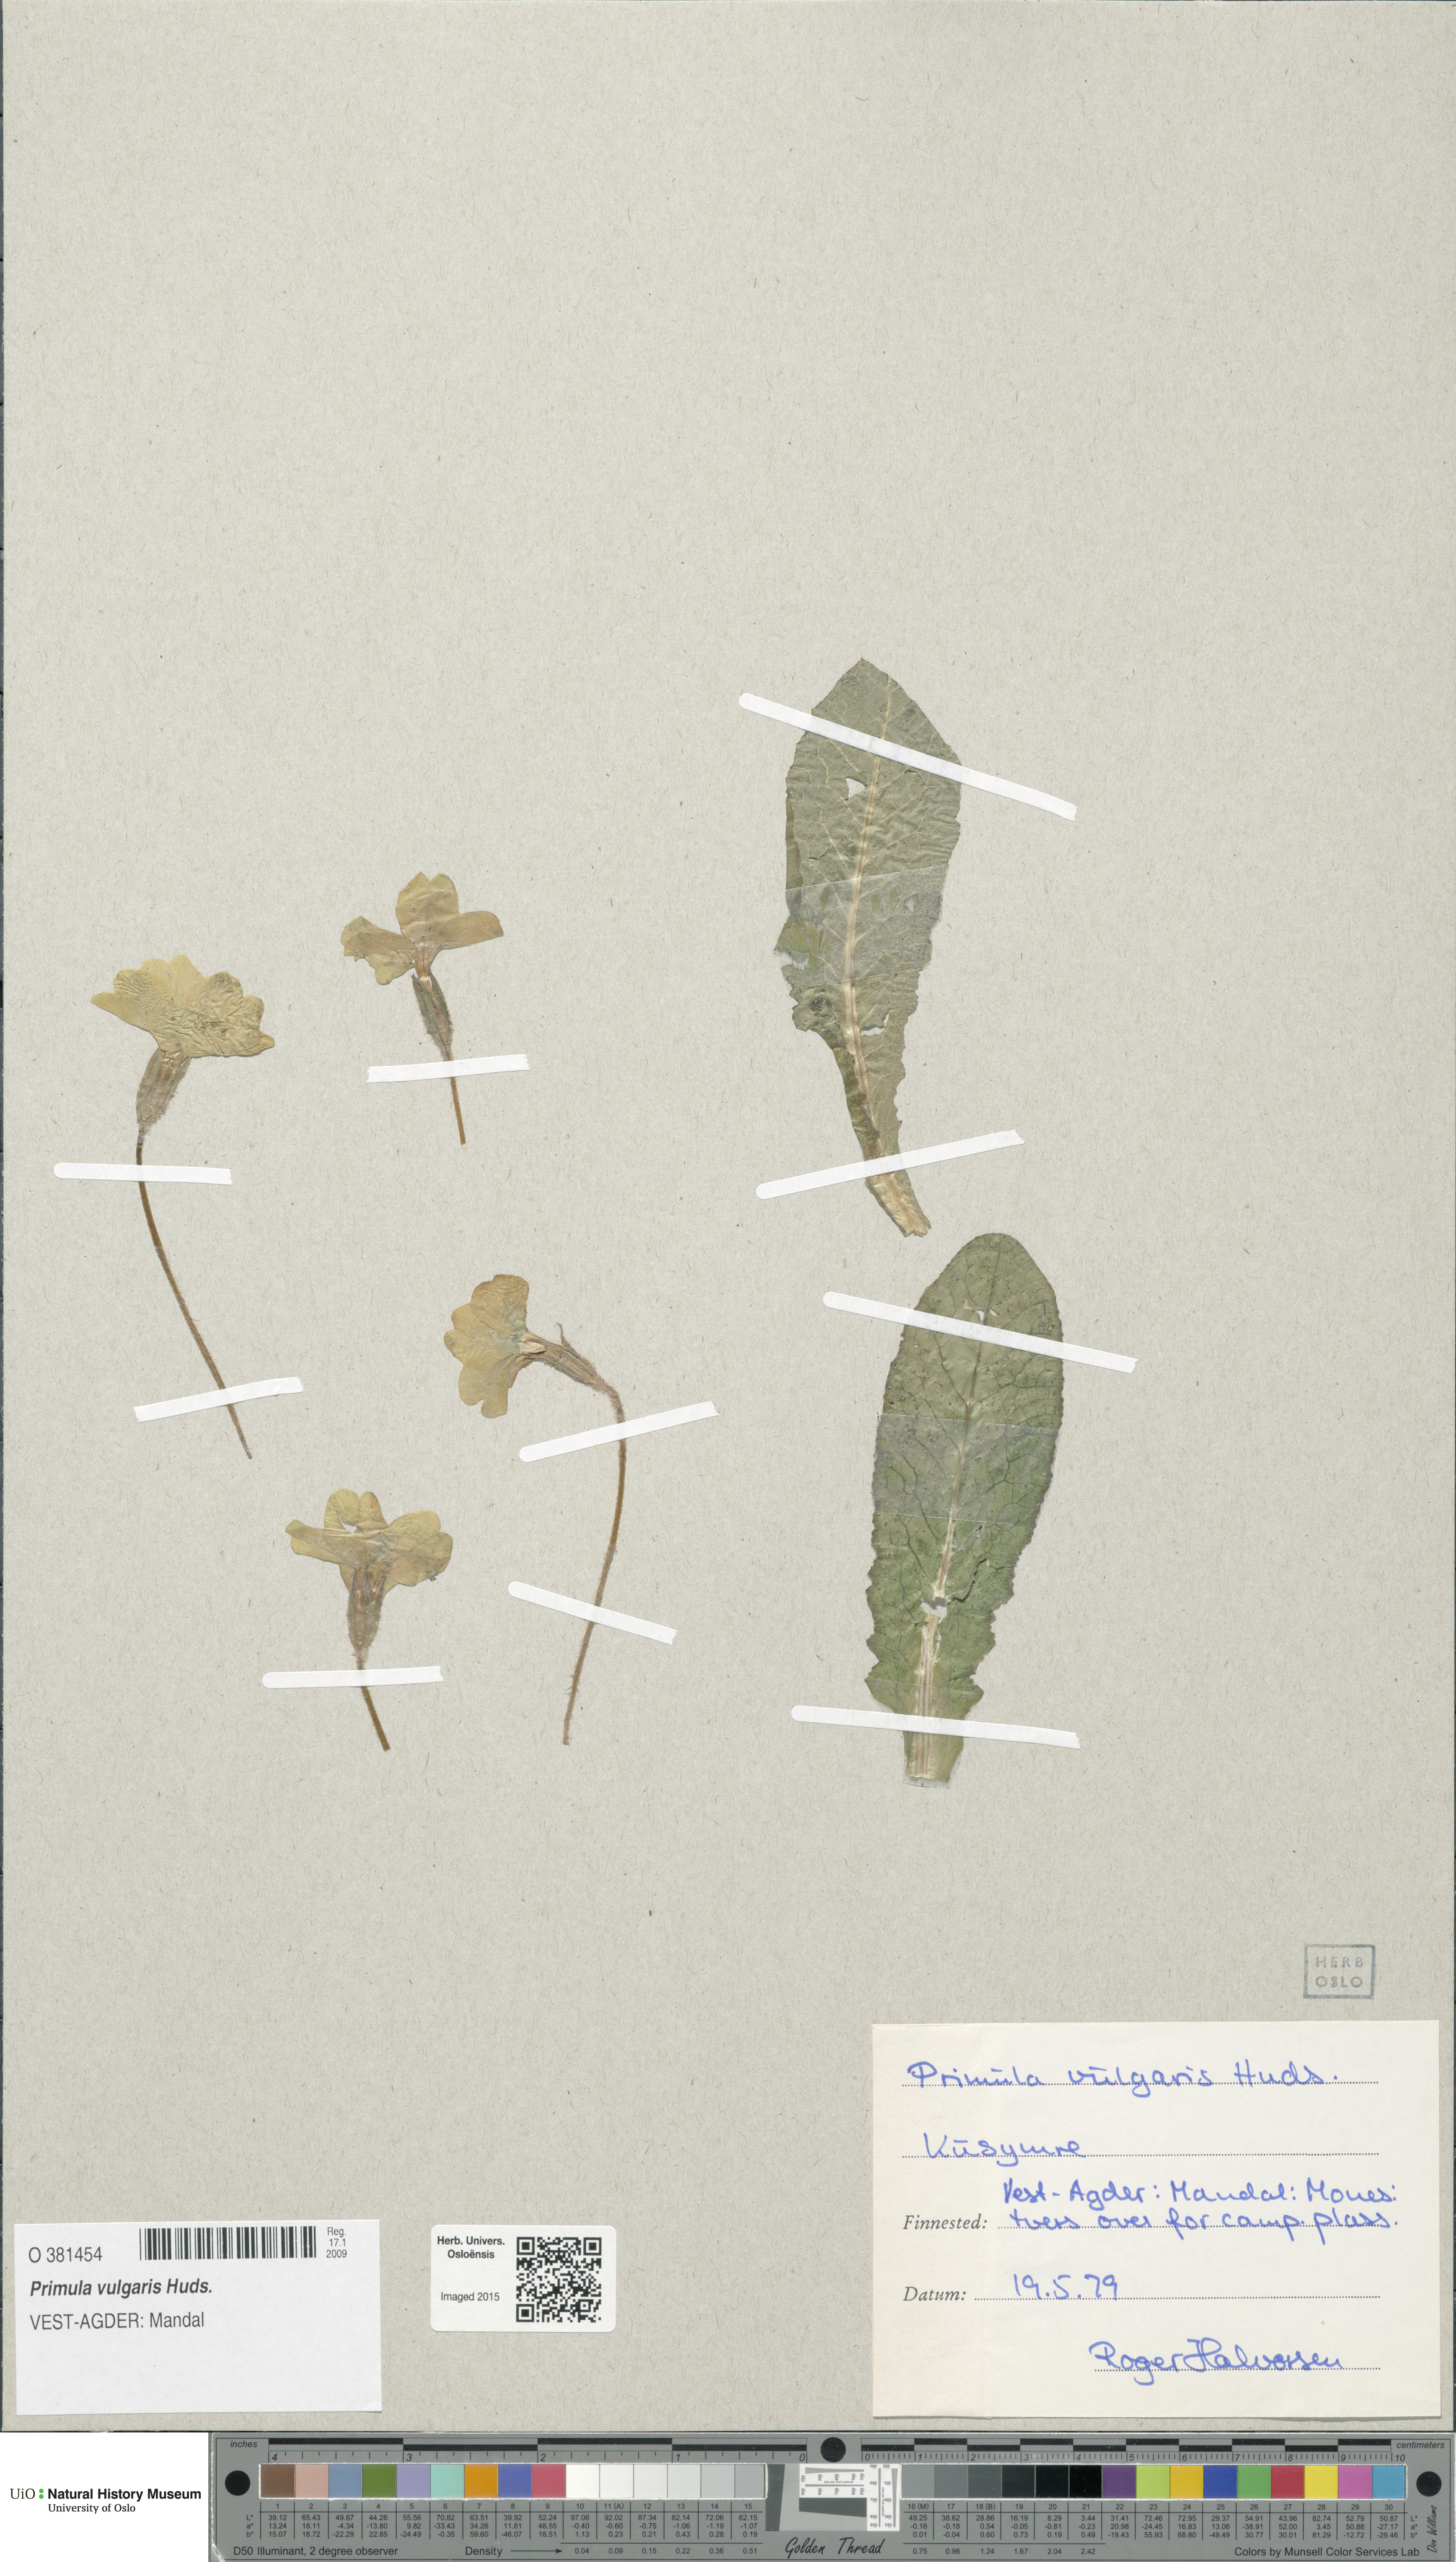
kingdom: Plantae
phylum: Tracheophyta
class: Magnoliopsida
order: Ericales
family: Primulaceae
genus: Primula
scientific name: Primula vulgaris
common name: Primrose
